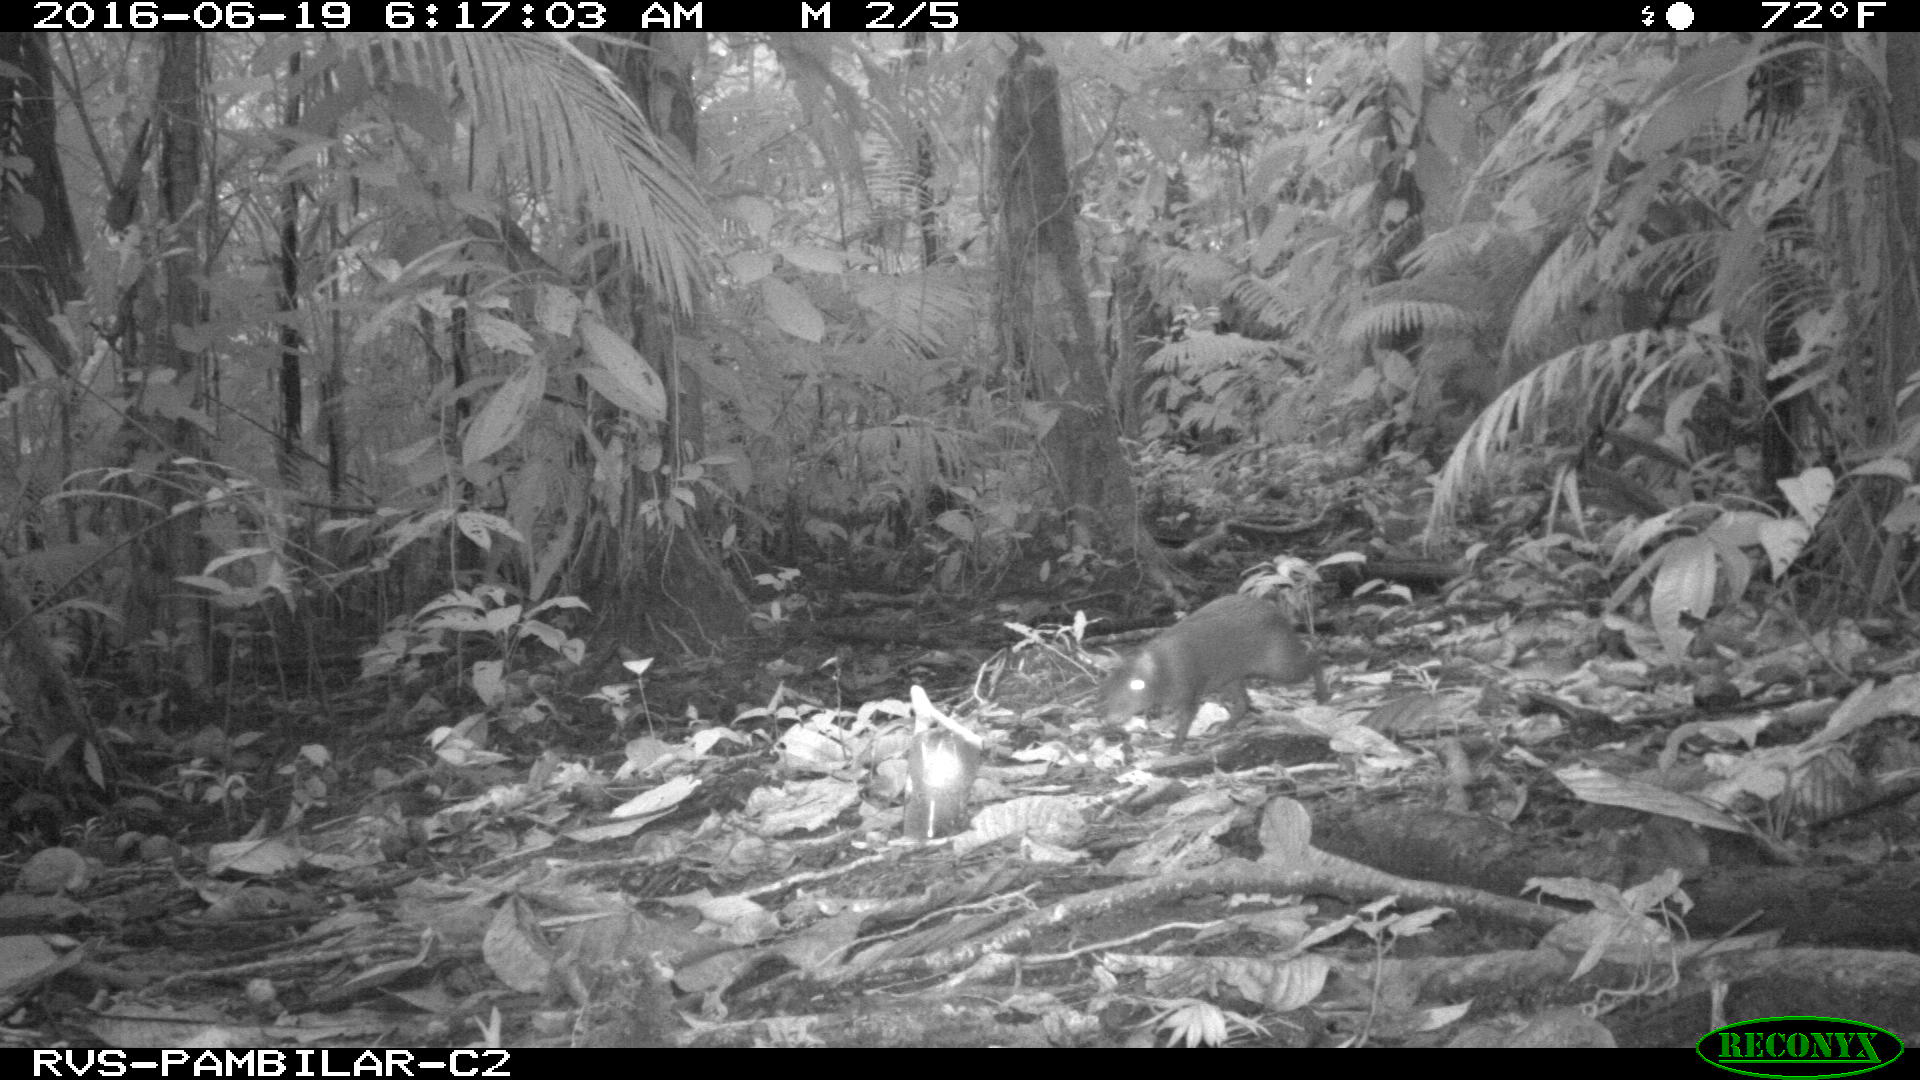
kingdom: Animalia
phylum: Chordata
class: Mammalia
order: Rodentia
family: Dasyproctidae
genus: Dasyprocta
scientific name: Dasyprocta punctata
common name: Central american agouti
